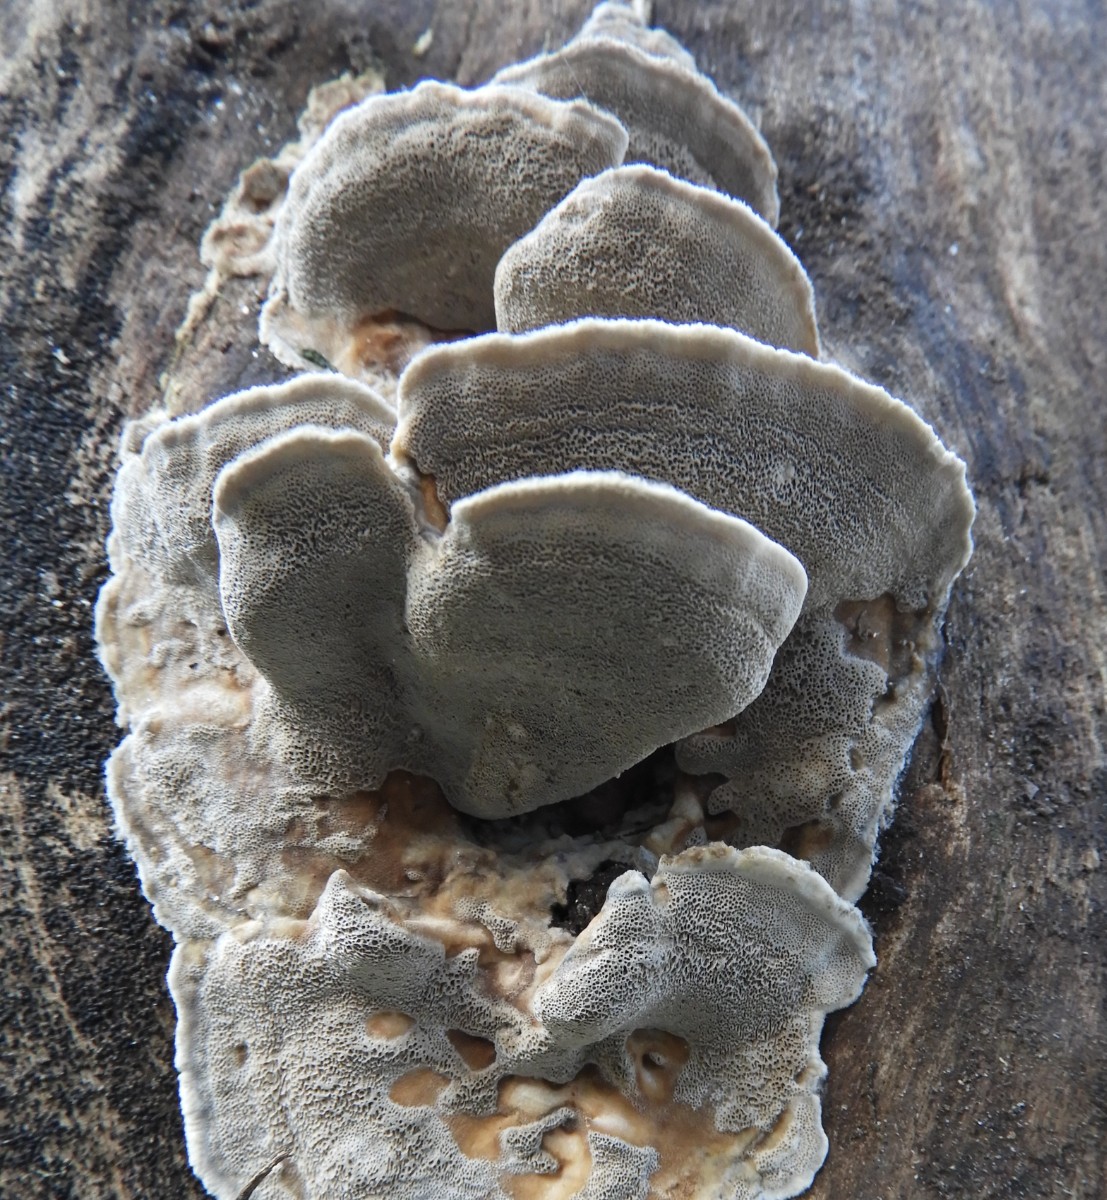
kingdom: Fungi
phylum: Basidiomycota
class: Agaricomycetes
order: Polyporales
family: Phanerochaetaceae
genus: Bjerkandera
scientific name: Bjerkandera fumosa
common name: grågul sodporesvamp
